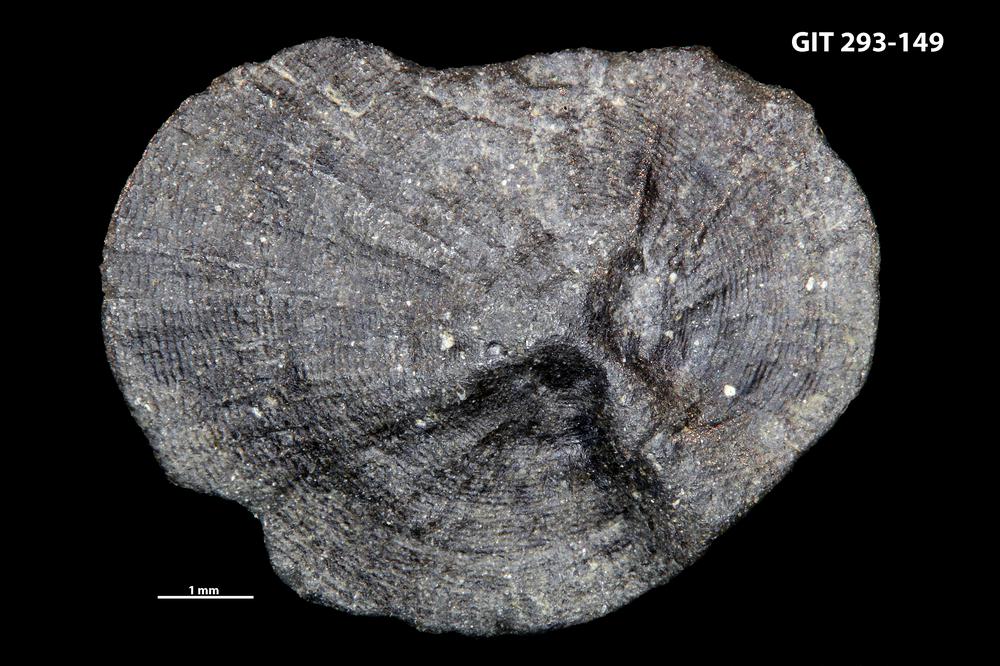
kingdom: Animalia
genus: Estoniadiscus
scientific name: Estoniadiscus
